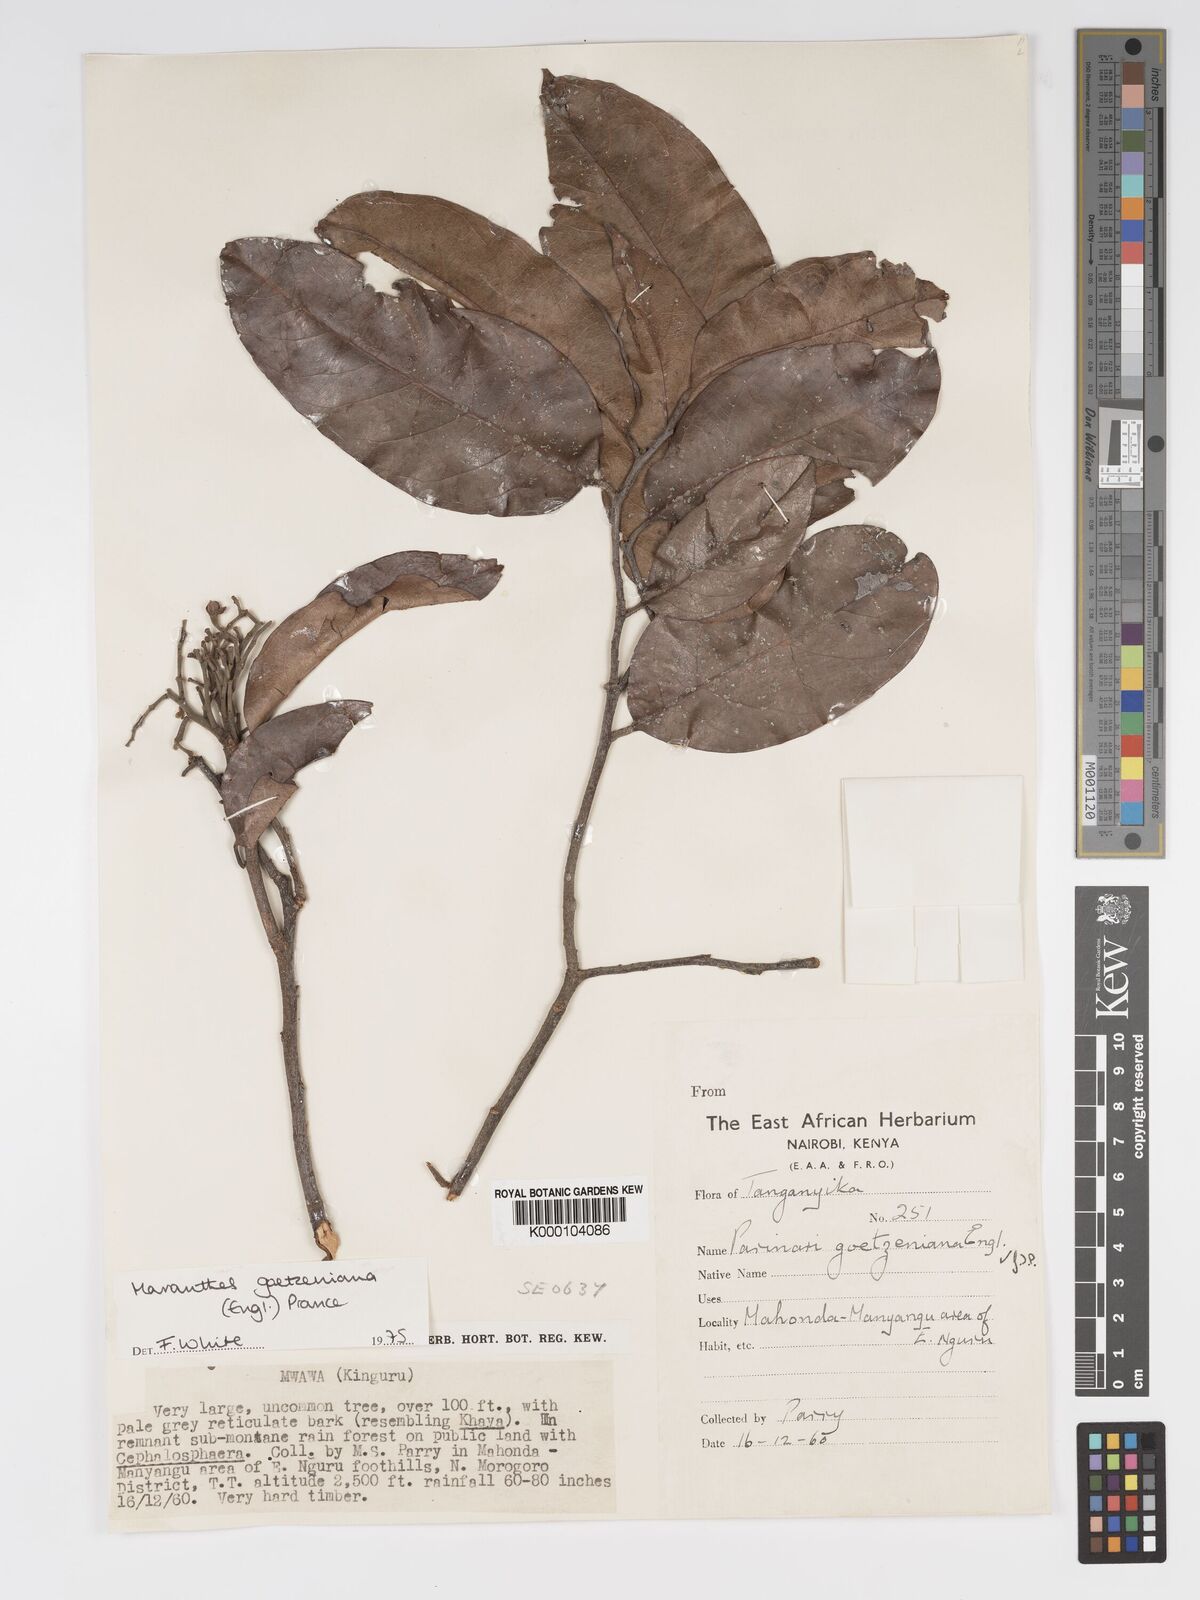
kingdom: Plantae
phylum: Tracheophyta
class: Magnoliopsida
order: Malpighiales
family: Chrysobalanaceae
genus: Maranthes
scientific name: Maranthes goetzeniana
